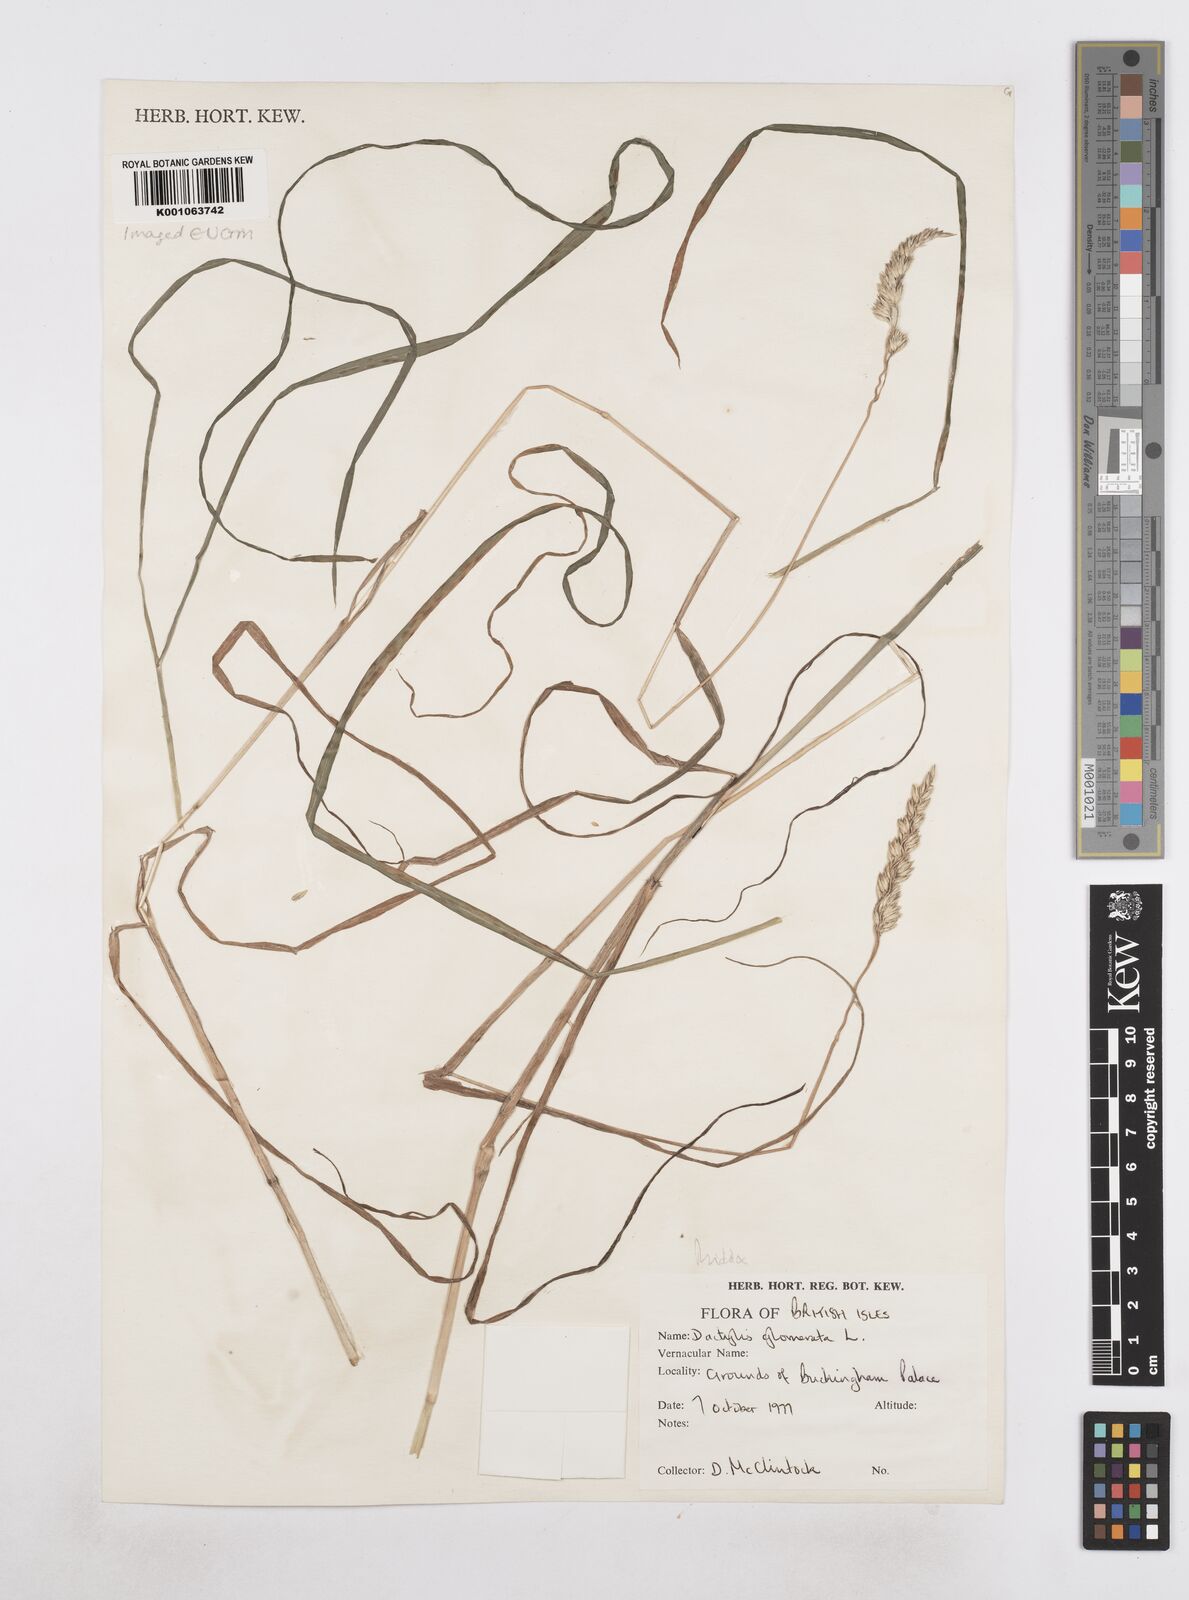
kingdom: Plantae
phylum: Tracheophyta
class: Liliopsida
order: Poales
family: Poaceae
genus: Dactylis
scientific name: Dactylis glomerata
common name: Orchardgrass
